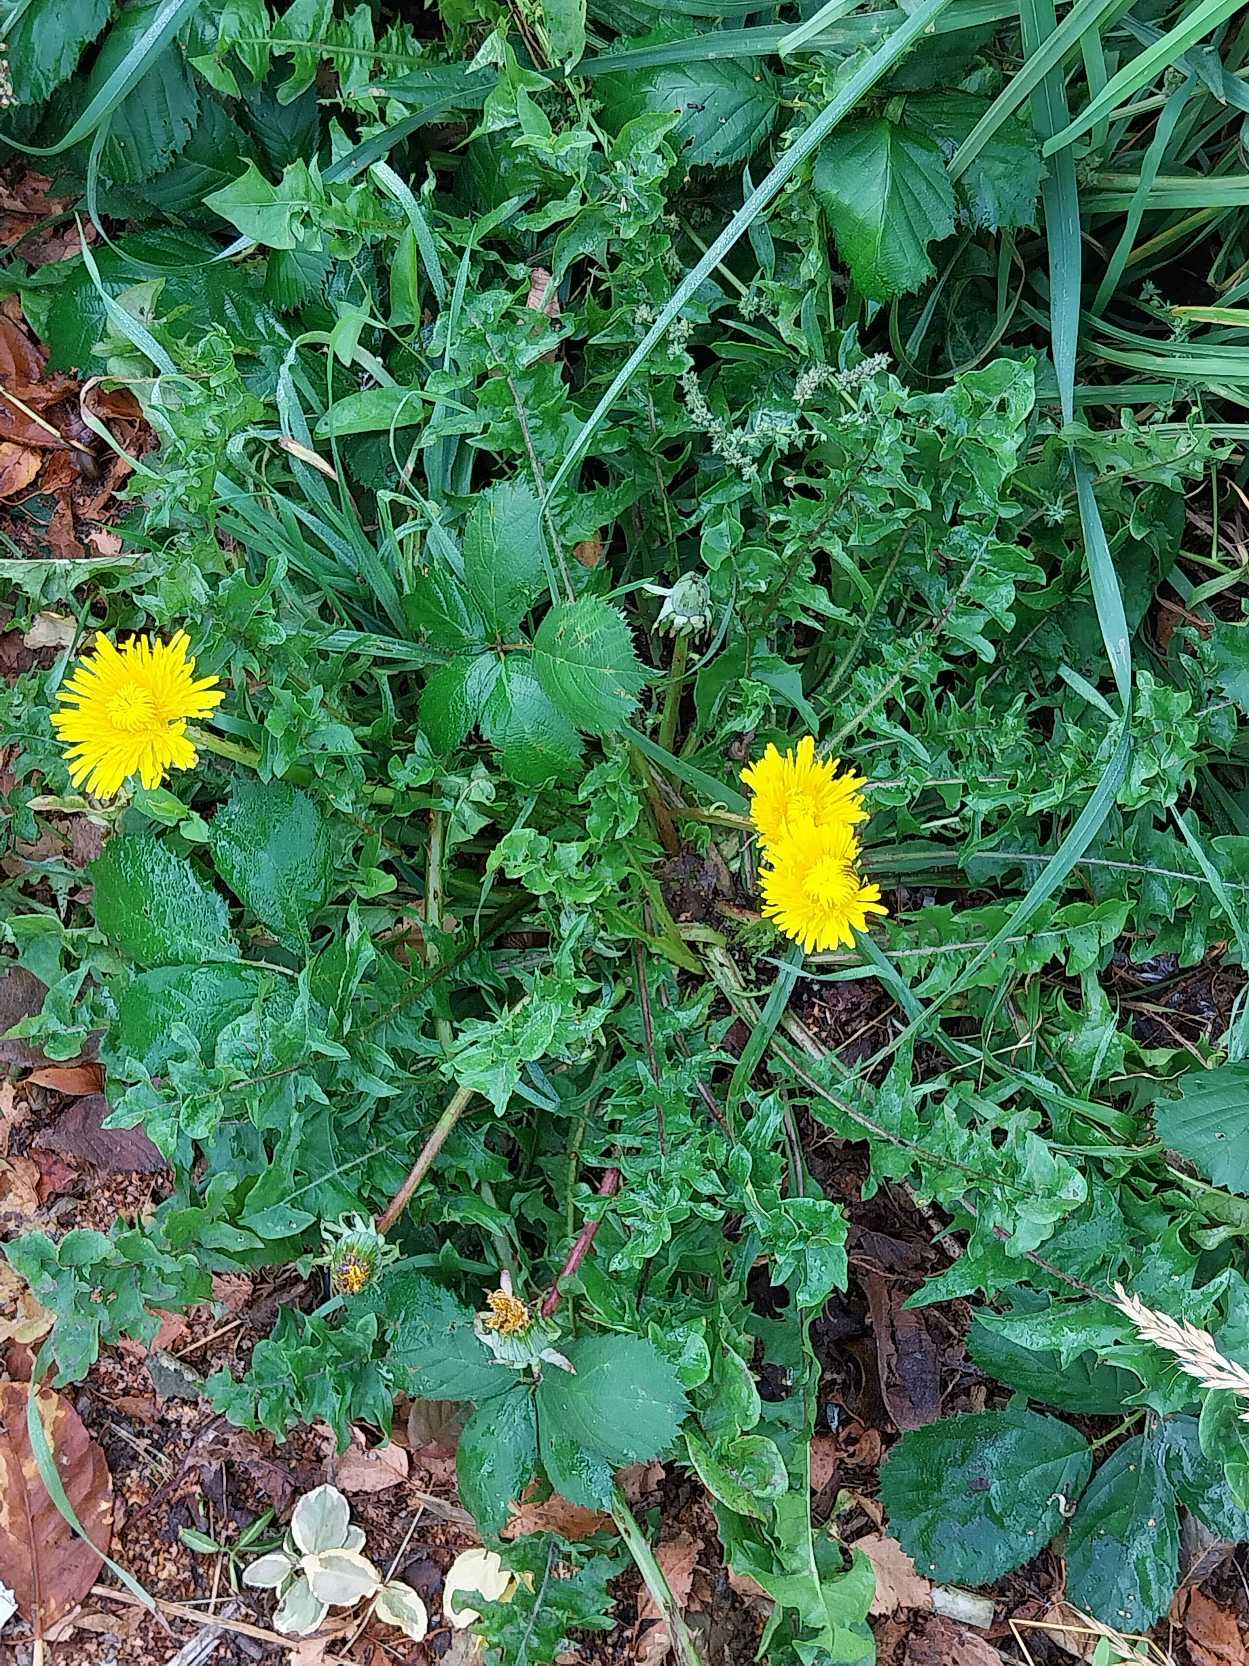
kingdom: Plantae
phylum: Tracheophyta
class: Magnoliopsida
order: Asterales
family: Asteraceae
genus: Taraxacum
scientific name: Taraxacum
